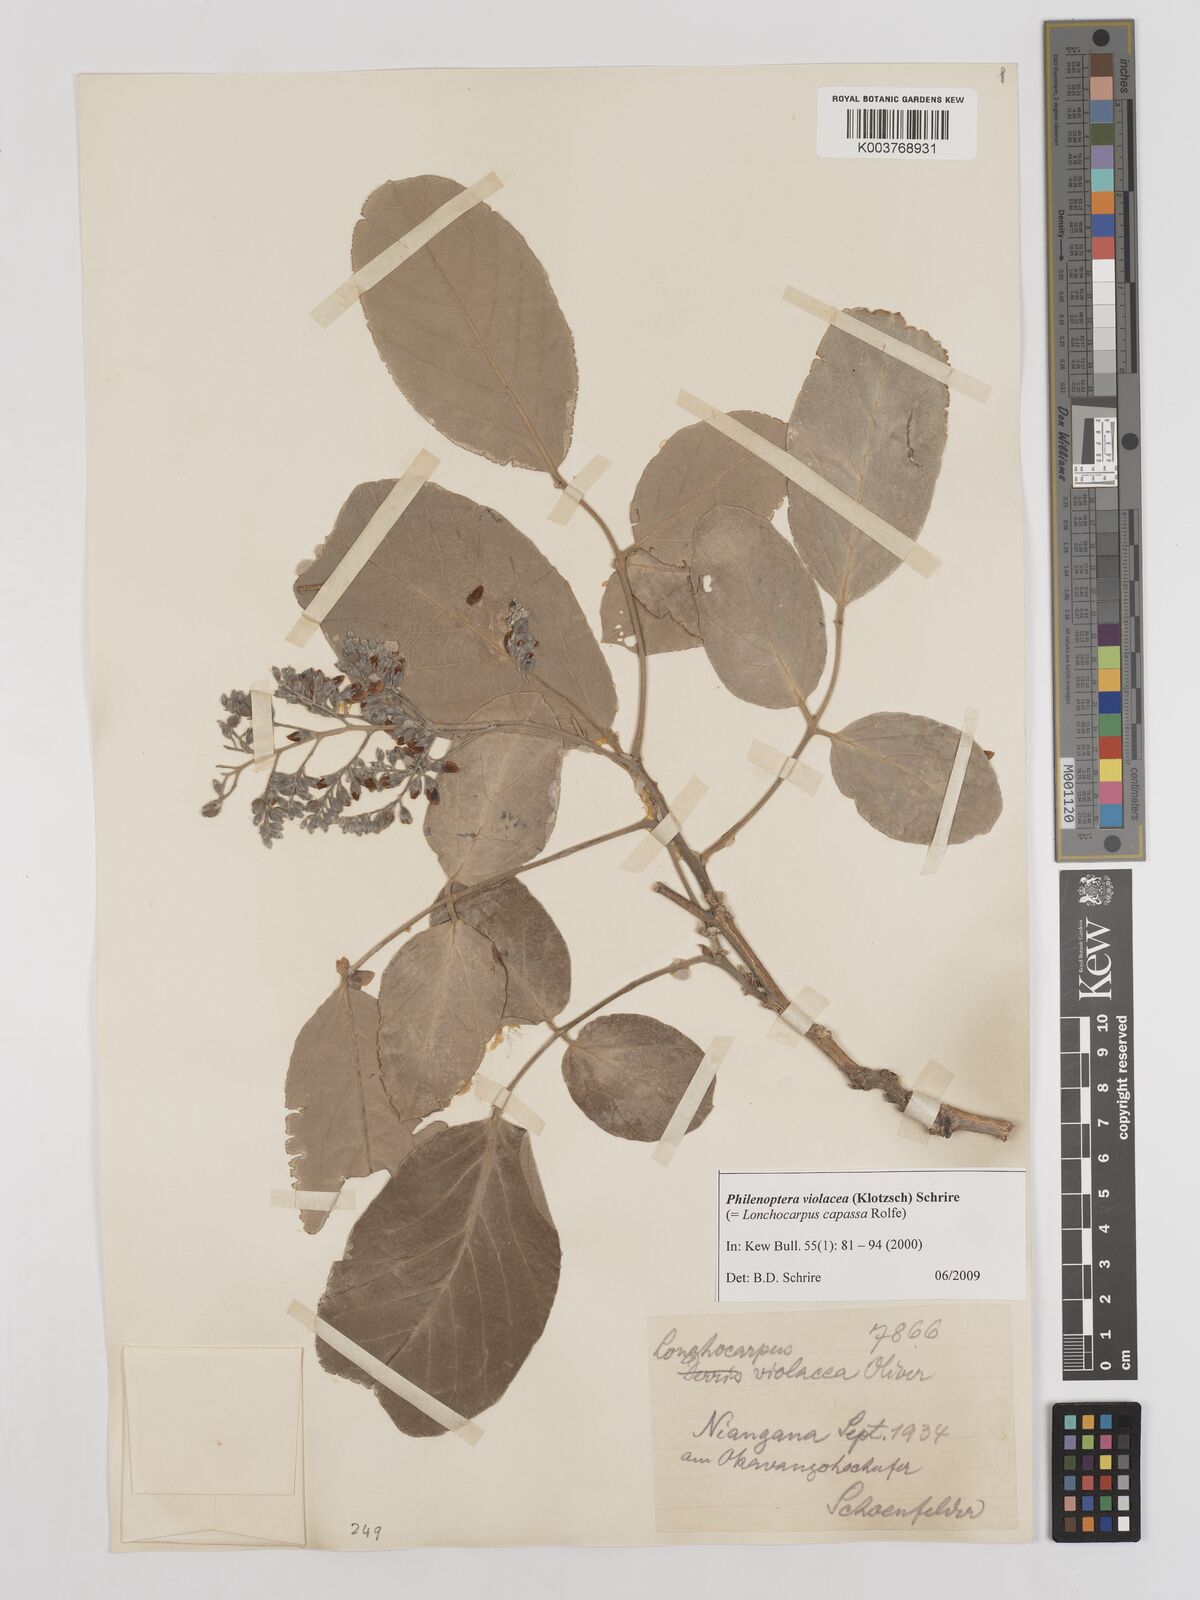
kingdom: Plantae
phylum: Tracheophyta
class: Magnoliopsida
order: Fabales
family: Fabaceae
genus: Philenoptera
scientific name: Philenoptera violacea
